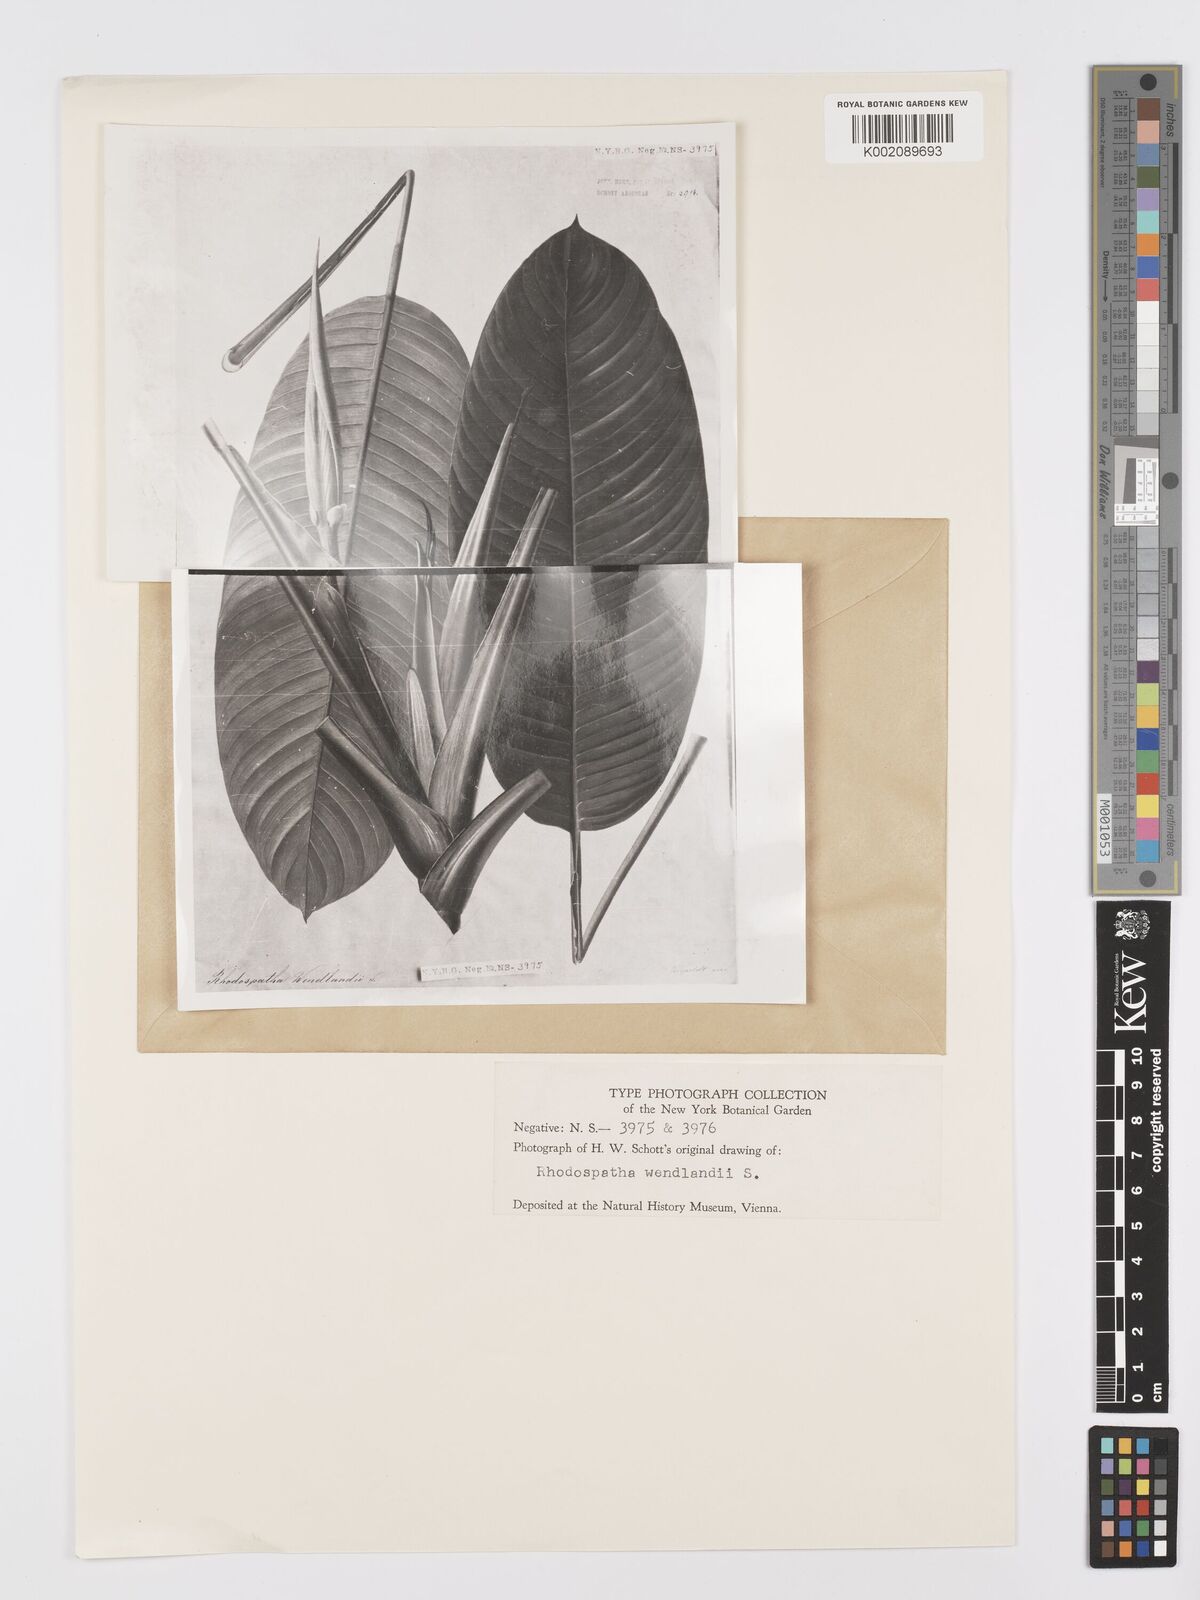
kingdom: Plantae
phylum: Tracheophyta
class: Liliopsida
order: Alismatales
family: Araceae
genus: Rhodospatha
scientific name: Rhodospatha wendlandii
